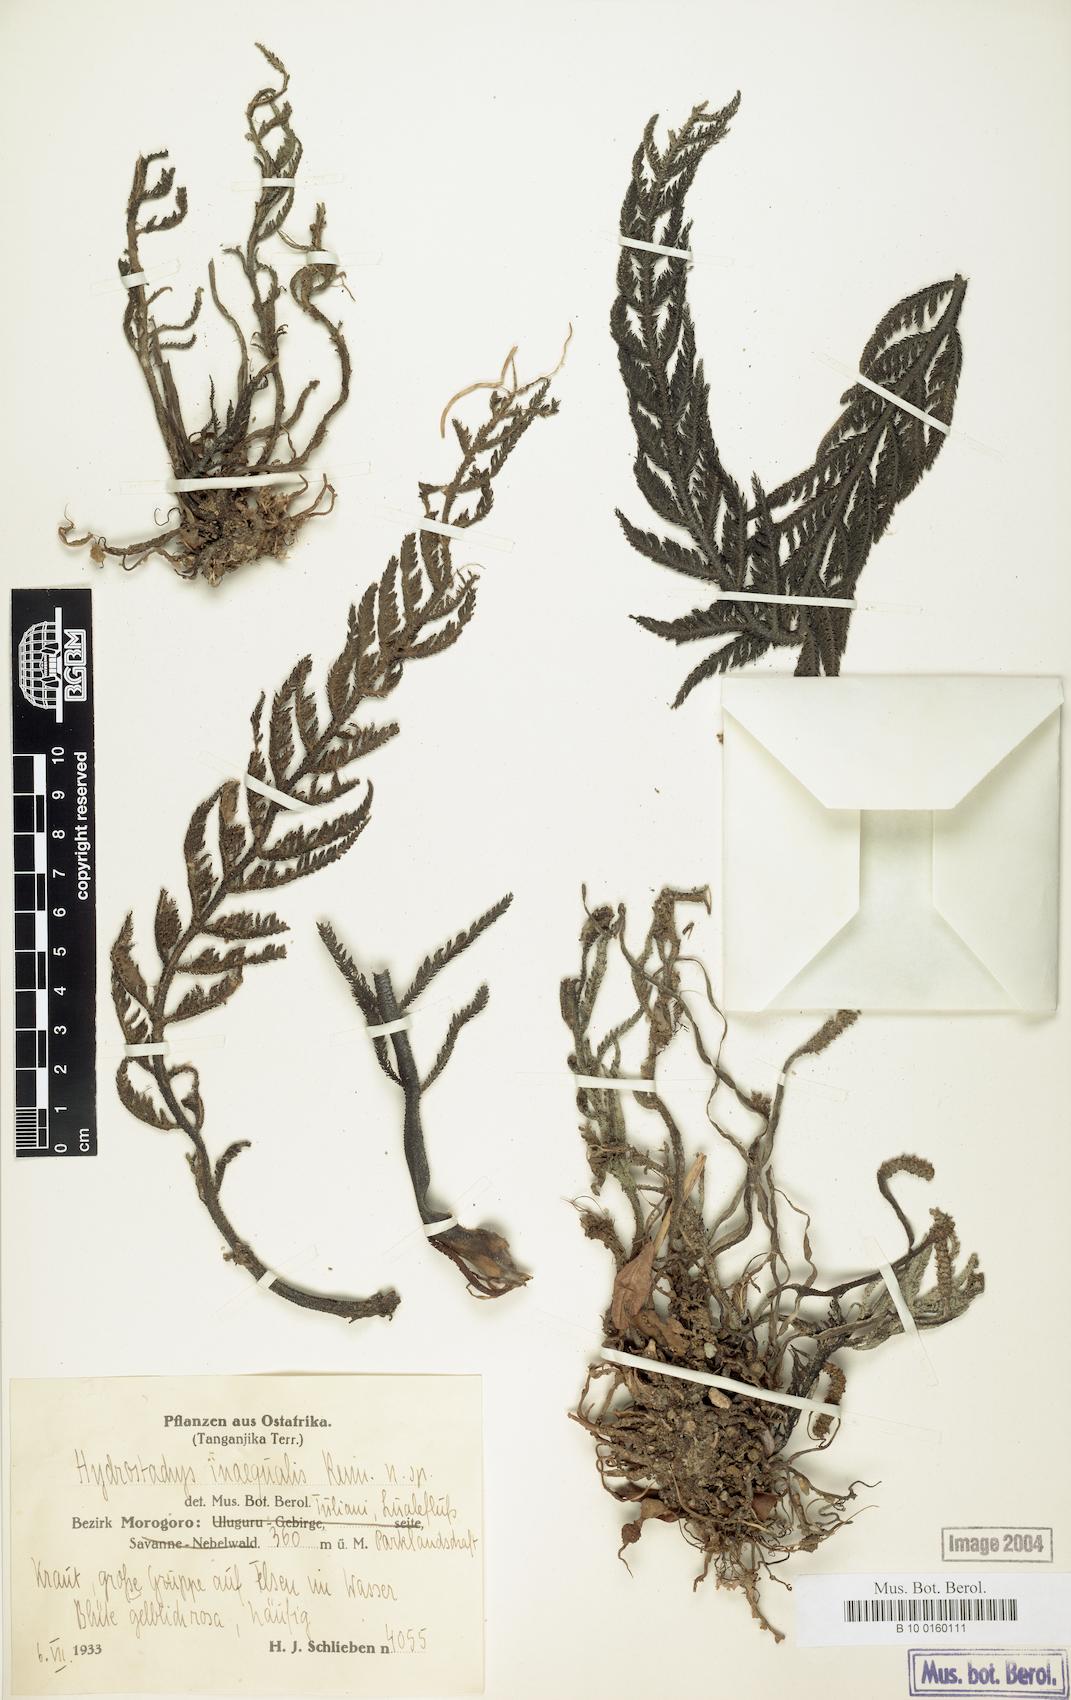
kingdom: Plantae
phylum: Tracheophyta
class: Magnoliopsida
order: Cornales
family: Hydrostachyaceae
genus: Hydrostachys
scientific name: Hydrostachys angustisecta
